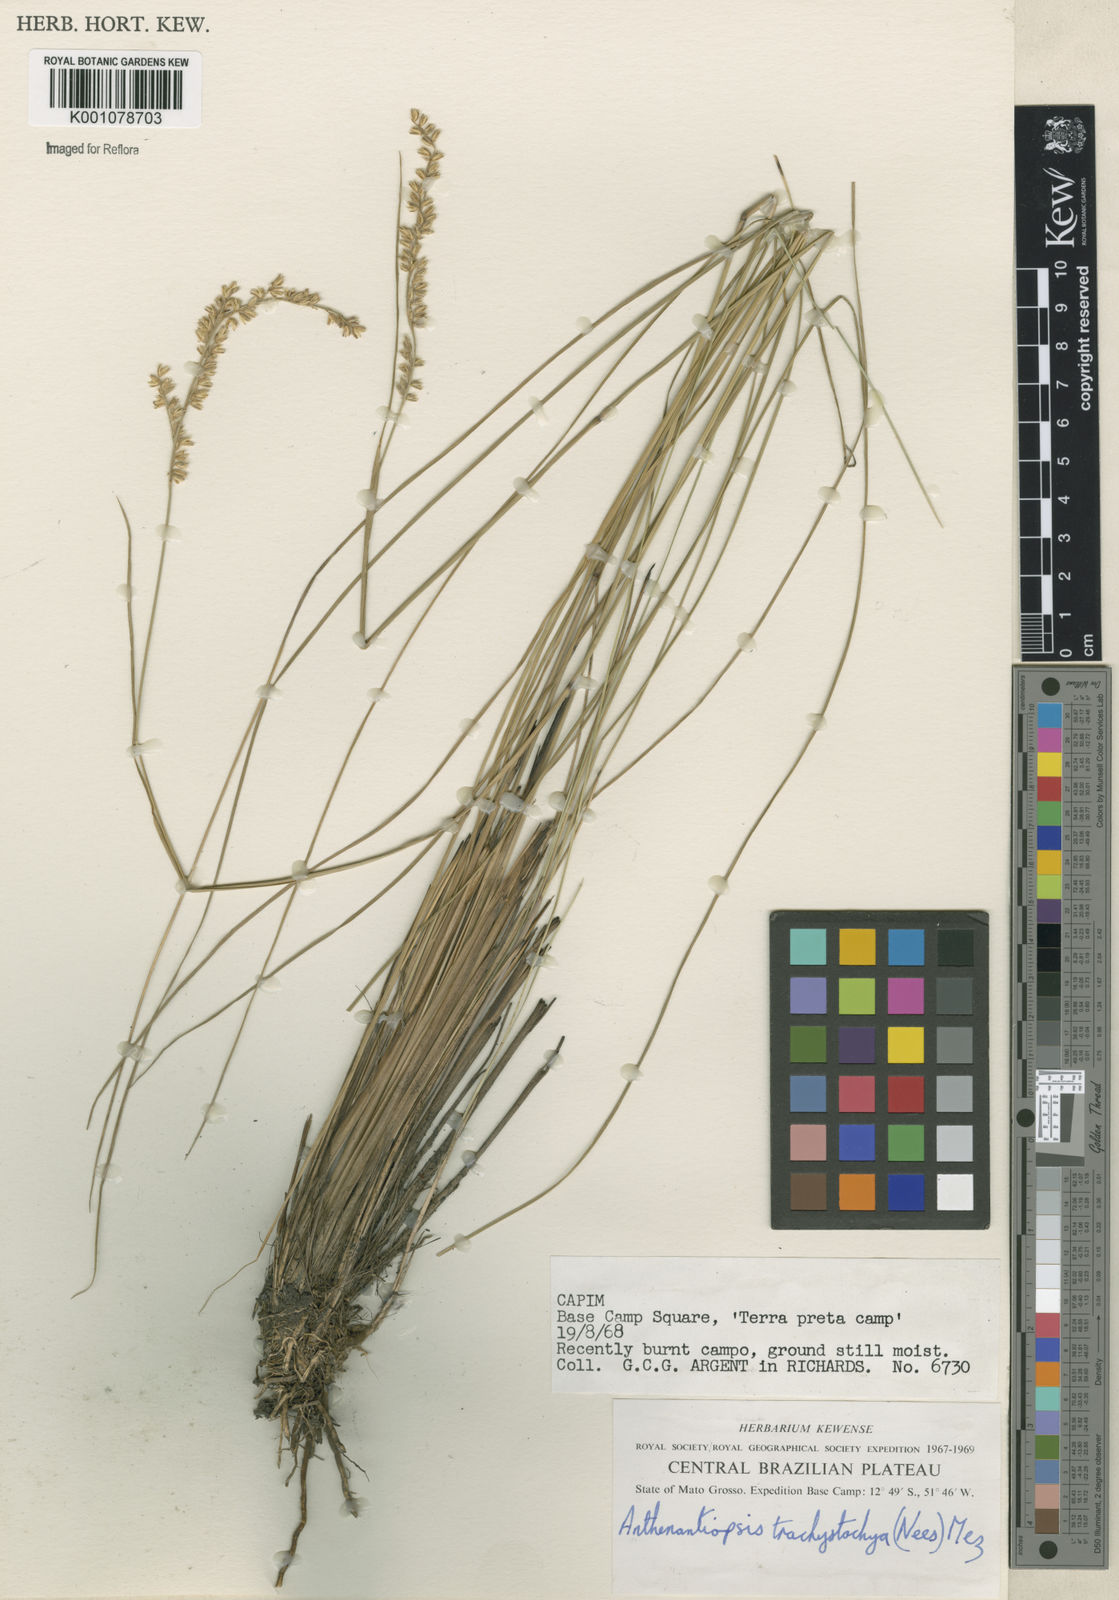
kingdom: Plantae
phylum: Tracheophyta
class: Liliopsida
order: Poales
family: Poaceae
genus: Anthaenantiopsis
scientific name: Anthaenantiopsis trachystachya
